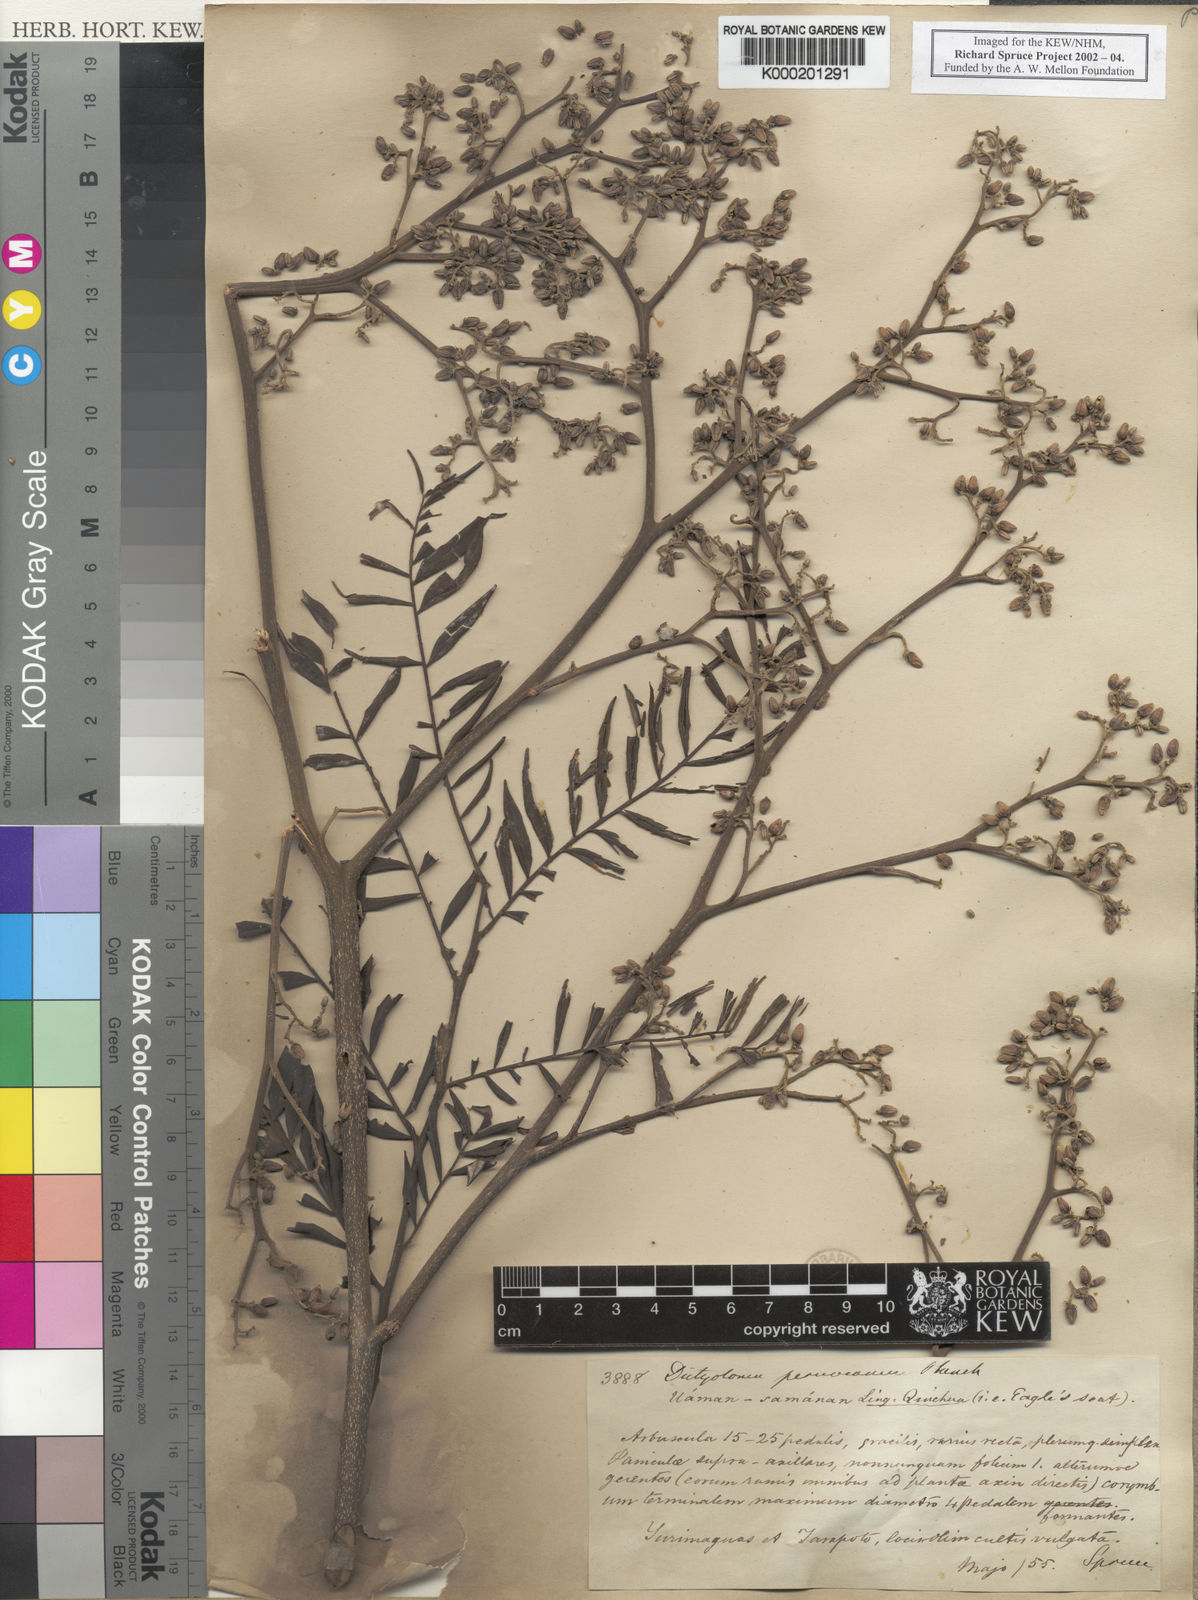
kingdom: Plantae
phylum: Tracheophyta
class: Magnoliopsida
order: Sapindales
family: Rutaceae
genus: Dictyoloma
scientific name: Dictyoloma vandellianum
